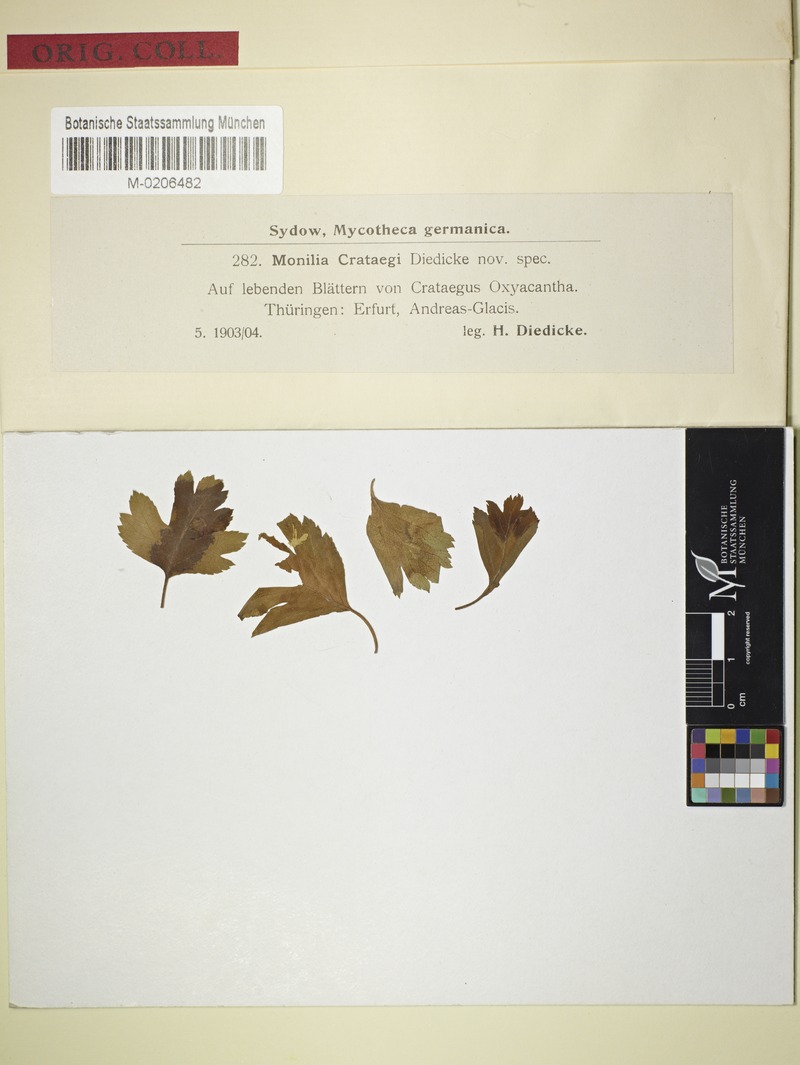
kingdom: Fungi
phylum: Ascomycota
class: Leotiomycetes
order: Helotiales
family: Sclerotiniaceae
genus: Monilinia
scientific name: Monilinia johnsonii
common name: Haw goblet
